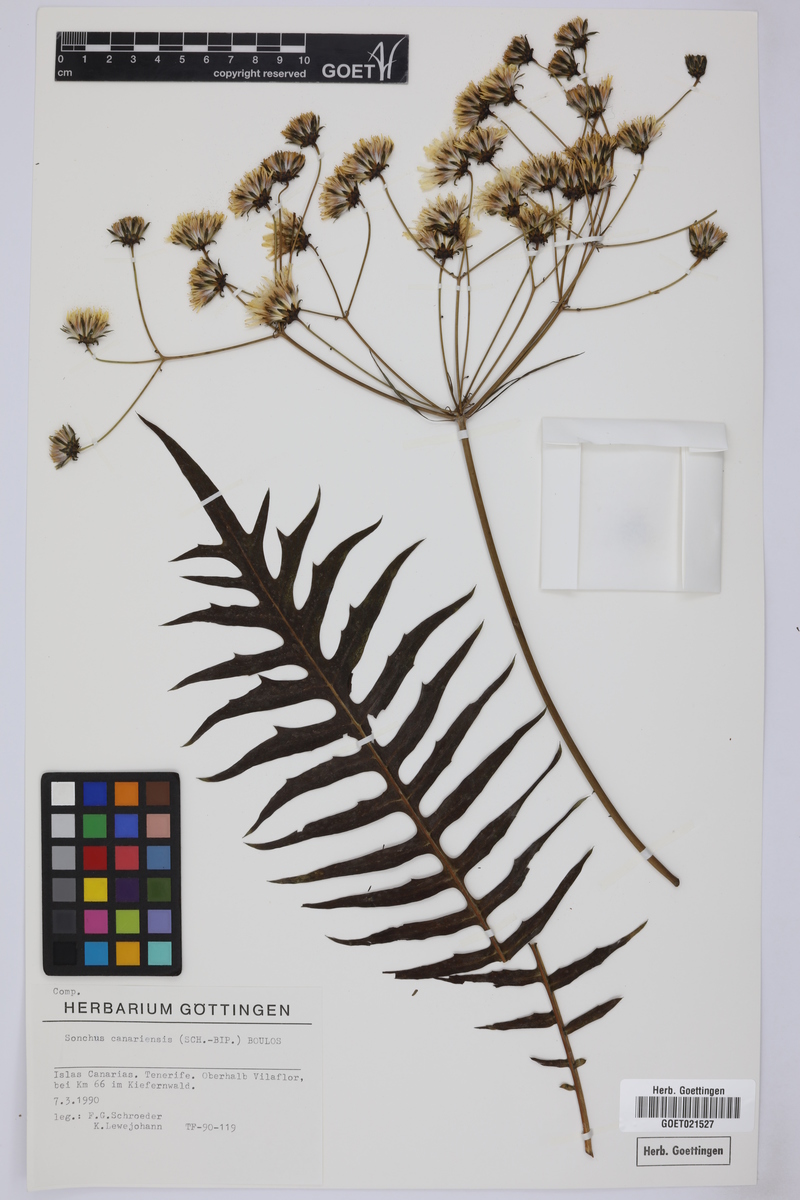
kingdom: Plantae
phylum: Tracheophyta
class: Magnoliopsida
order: Asterales
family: Asteraceae
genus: Sonchus
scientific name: Sonchus canariensis
